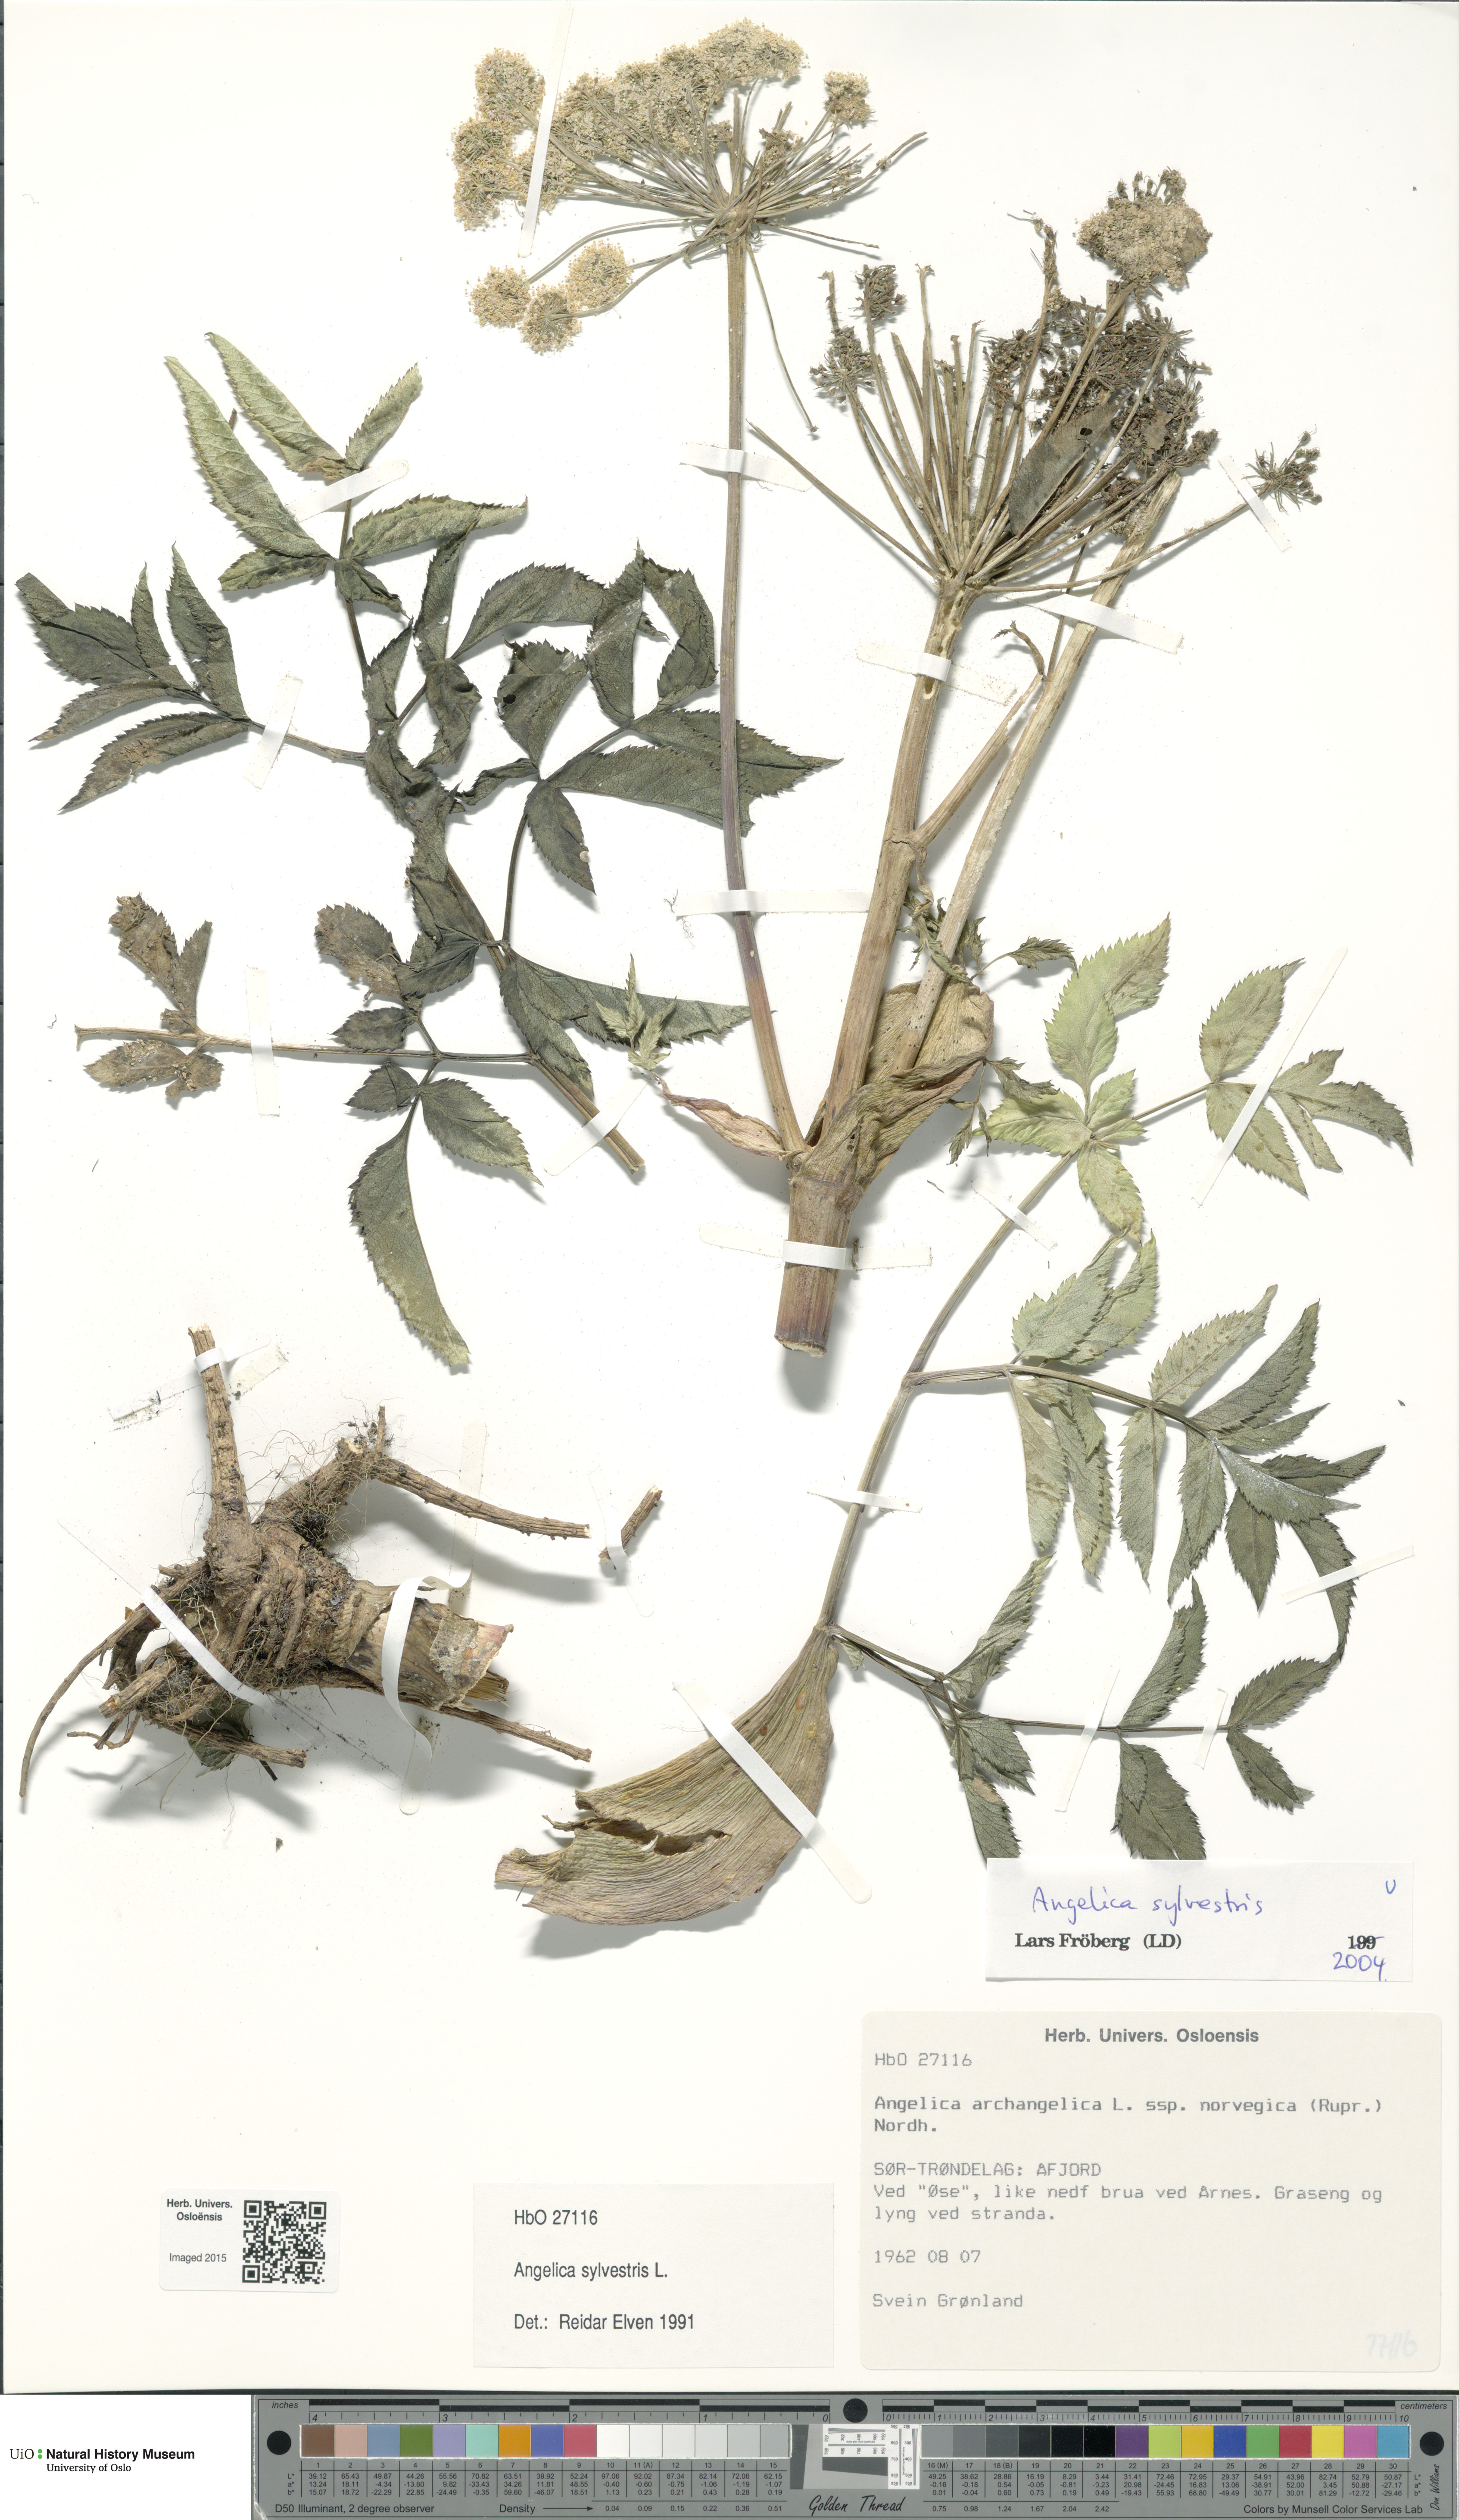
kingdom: Plantae
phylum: Tracheophyta
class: Magnoliopsida
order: Apiales
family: Apiaceae
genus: Angelica
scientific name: Angelica sylvestris
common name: Wild angelica
